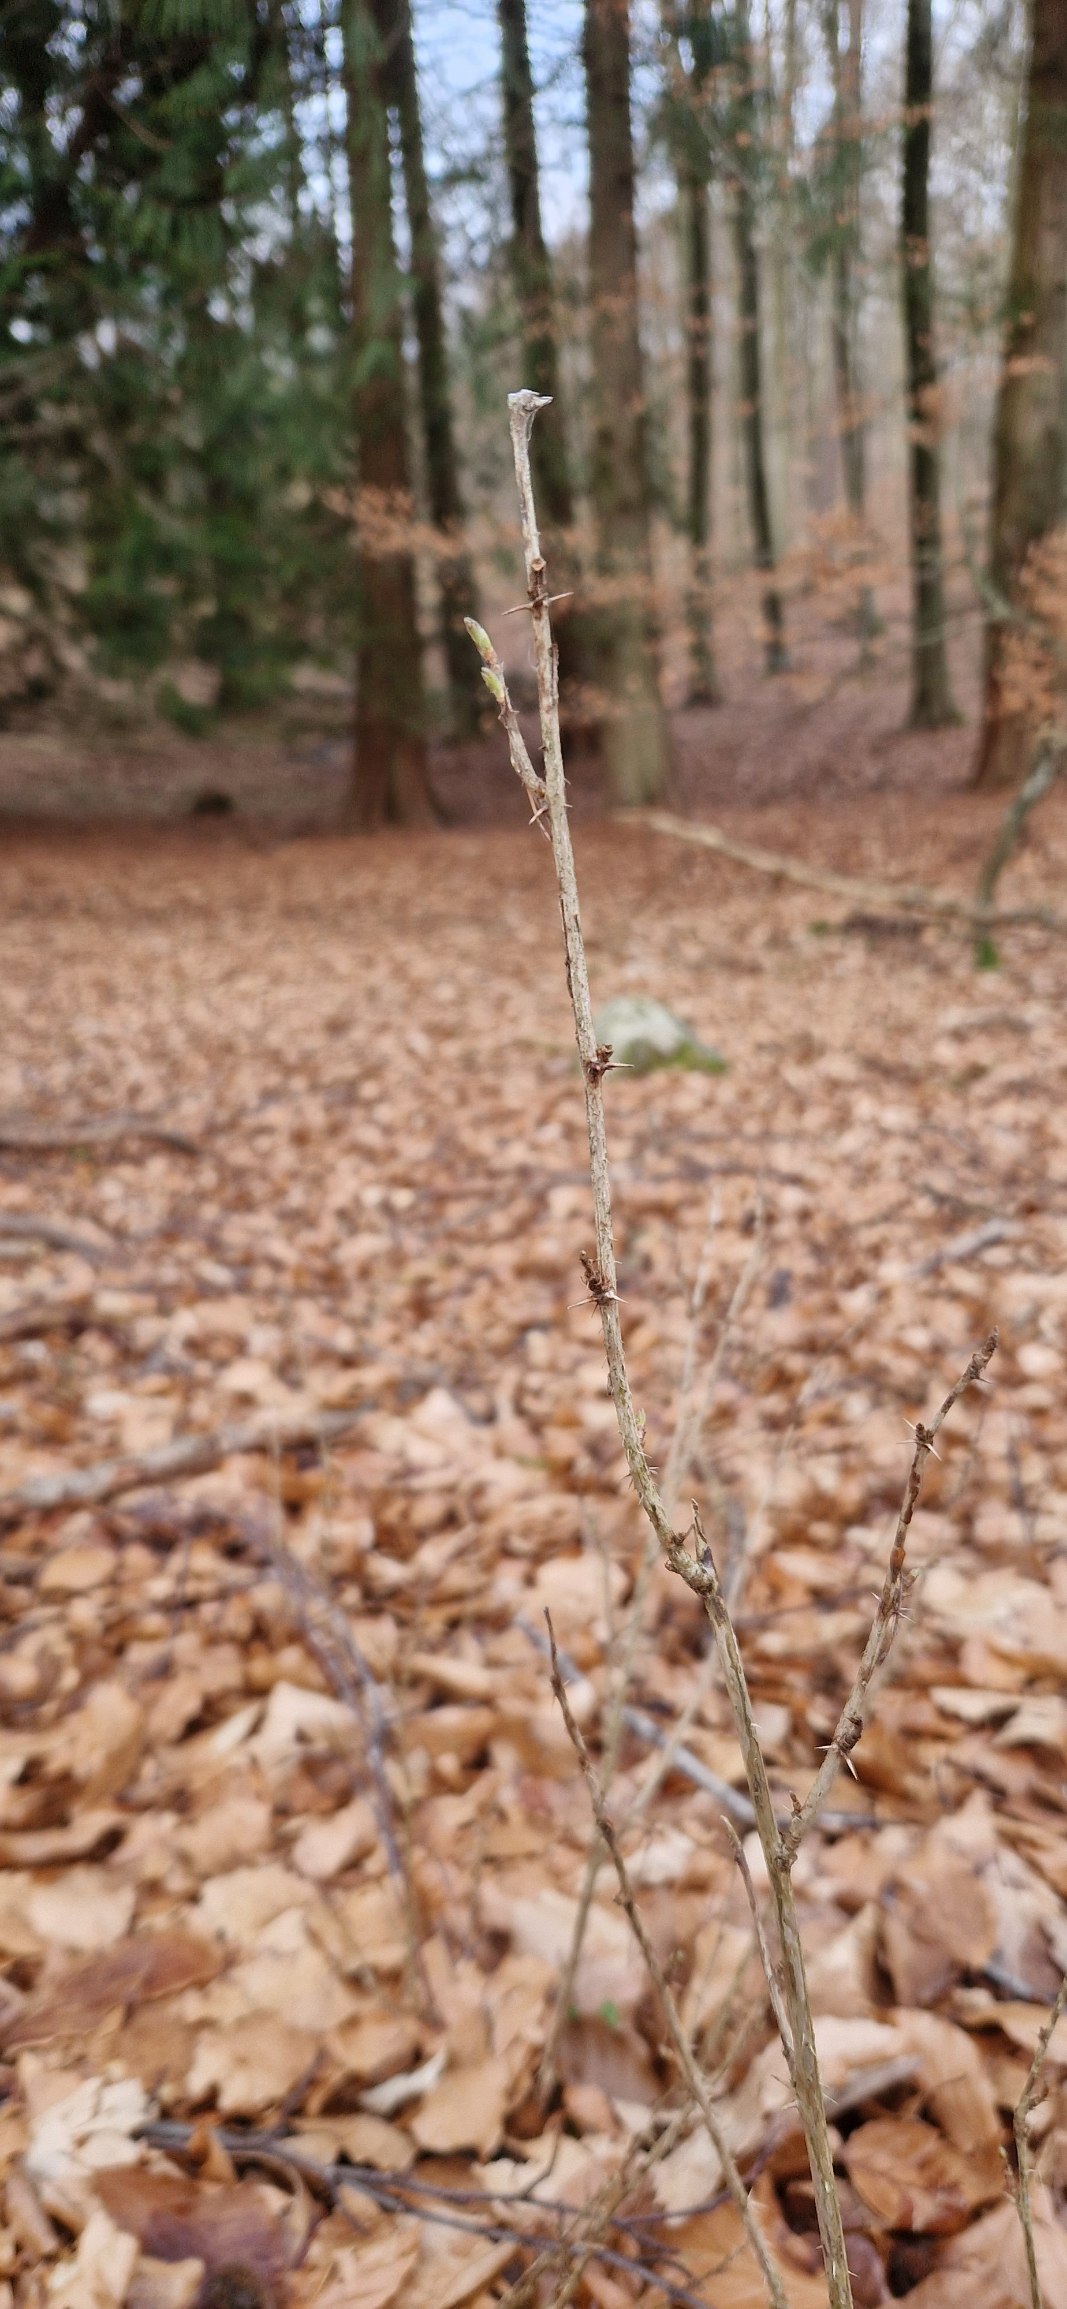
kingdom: Plantae
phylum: Tracheophyta
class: Magnoliopsida
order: Saxifragales
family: Grossulariaceae
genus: Ribes
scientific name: Ribes uva-crispa
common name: Stikkelsbær
